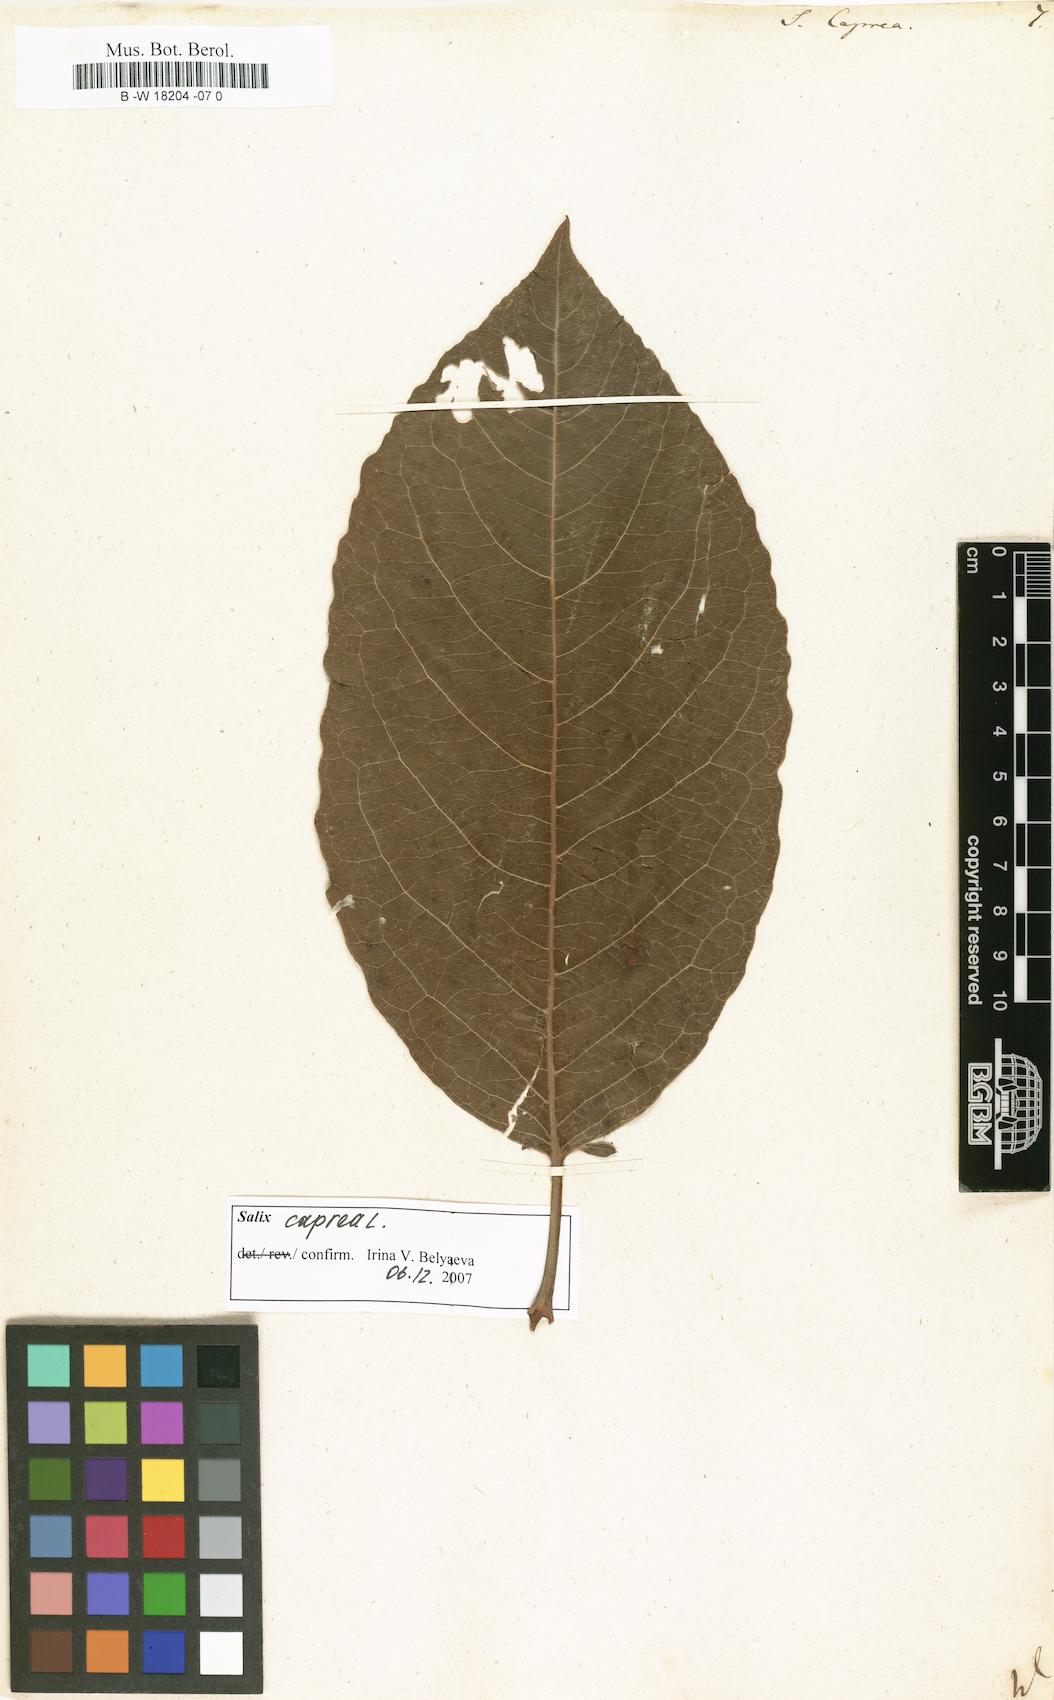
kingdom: Plantae
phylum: Tracheophyta
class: Magnoliopsida
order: Malpighiales
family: Salicaceae
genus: Salix
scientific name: Salix caprea
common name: Goat willow
